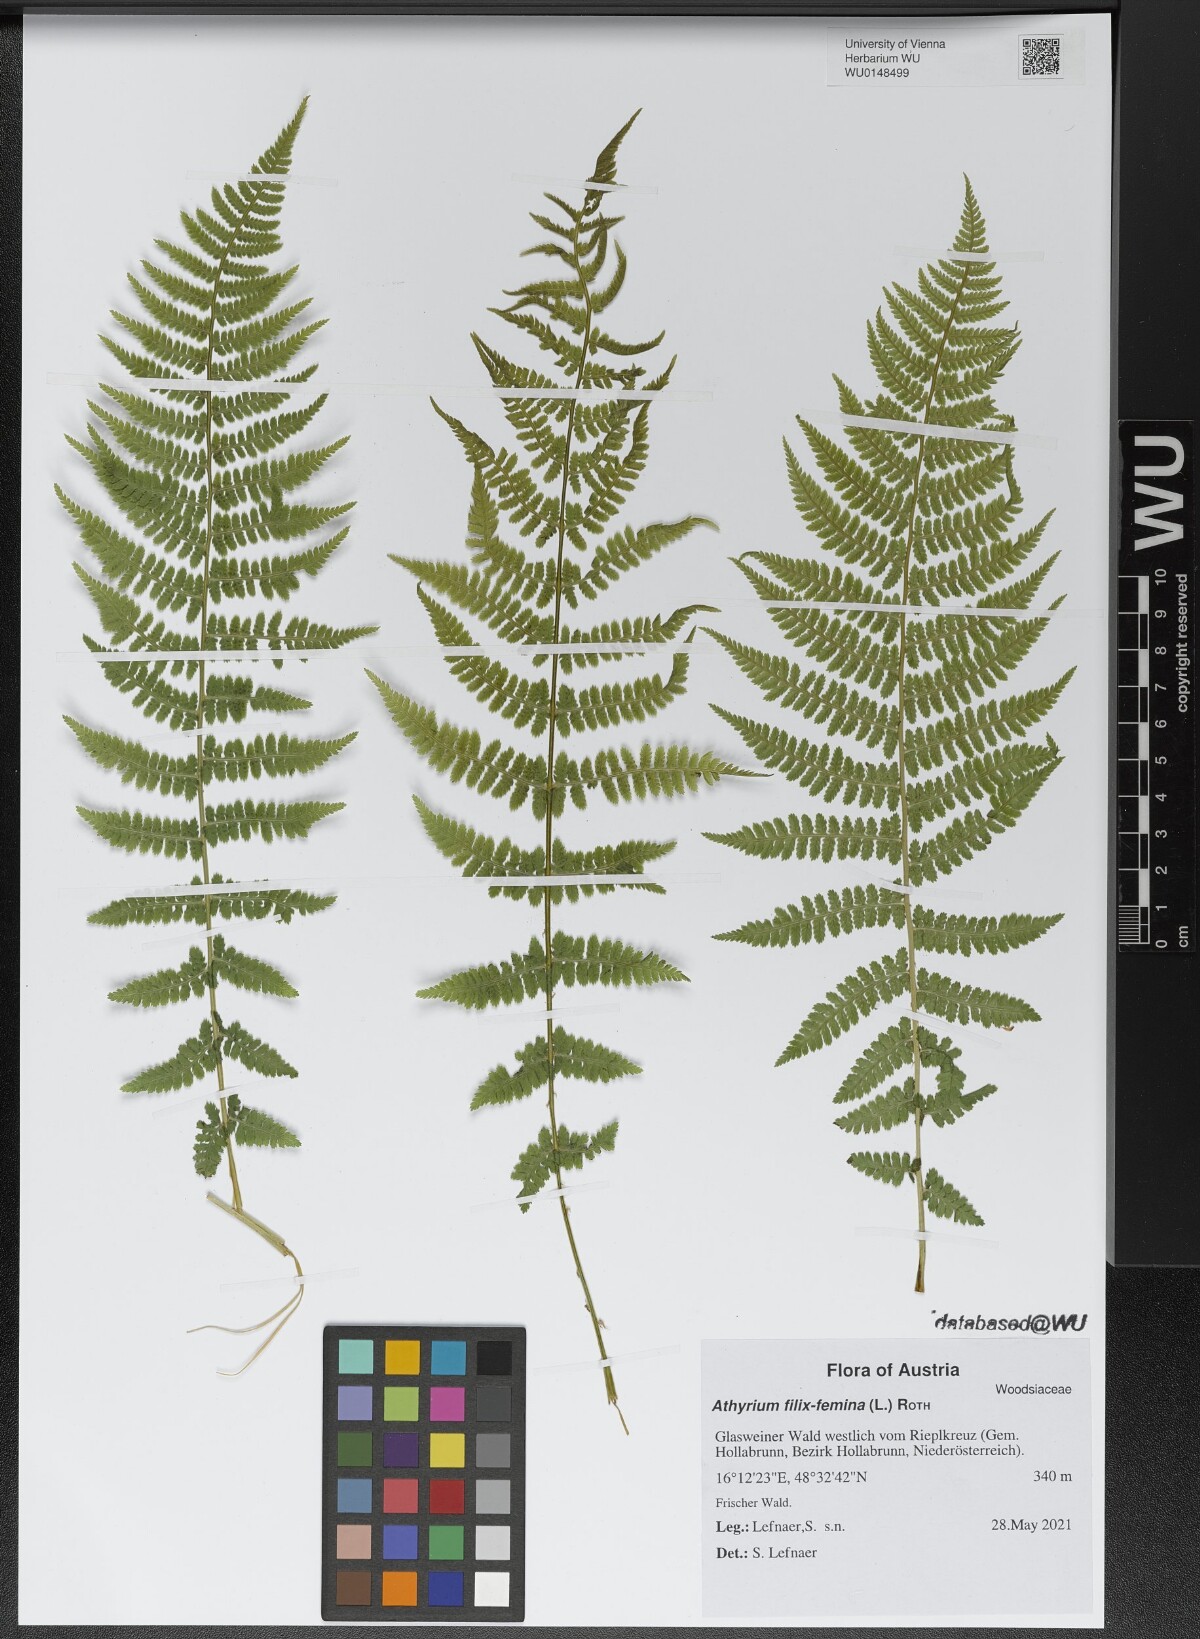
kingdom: Plantae
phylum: Tracheophyta
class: Polypodiopsida
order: Polypodiales
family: Athyriaceae
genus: Athyrium
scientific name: Athyrium filix-femina
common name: Lady fern
